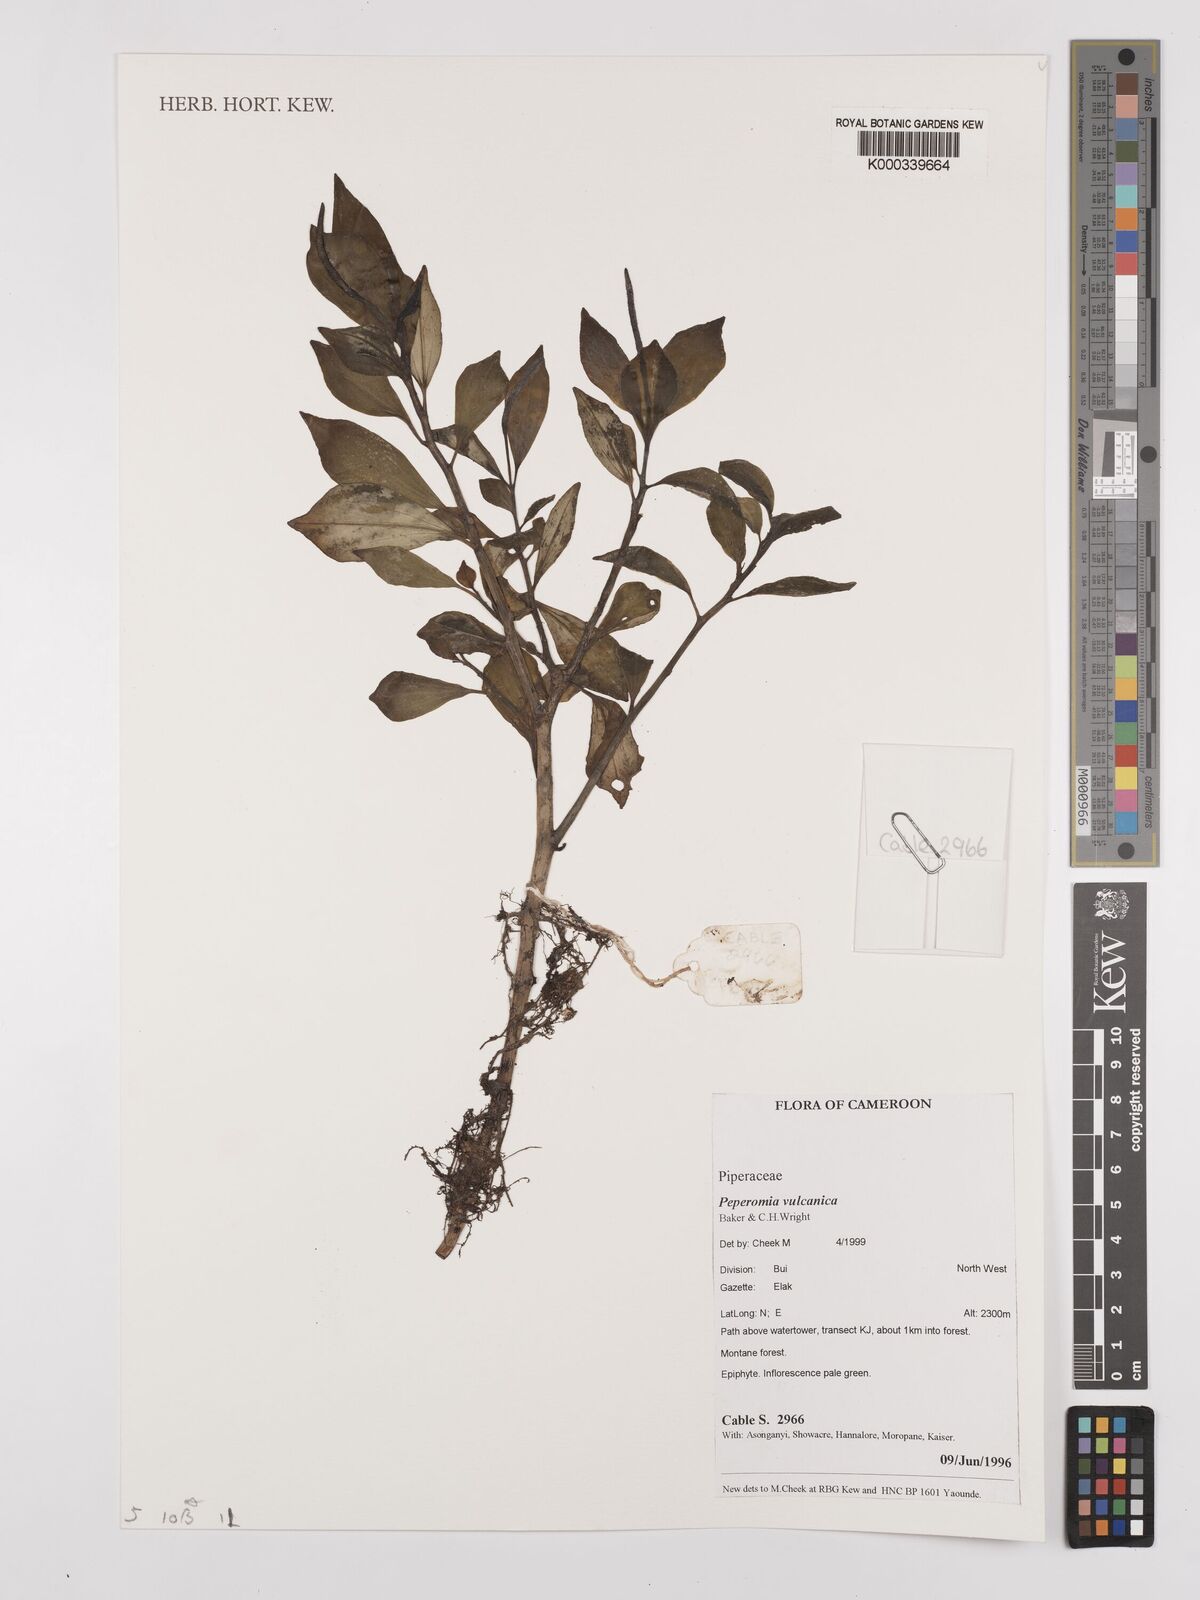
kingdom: Plantae
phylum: Tracheophyta
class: Magnoliopsida
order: Piperales
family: Piperaceae
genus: Peperomia
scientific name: Peperomia vulcanica
